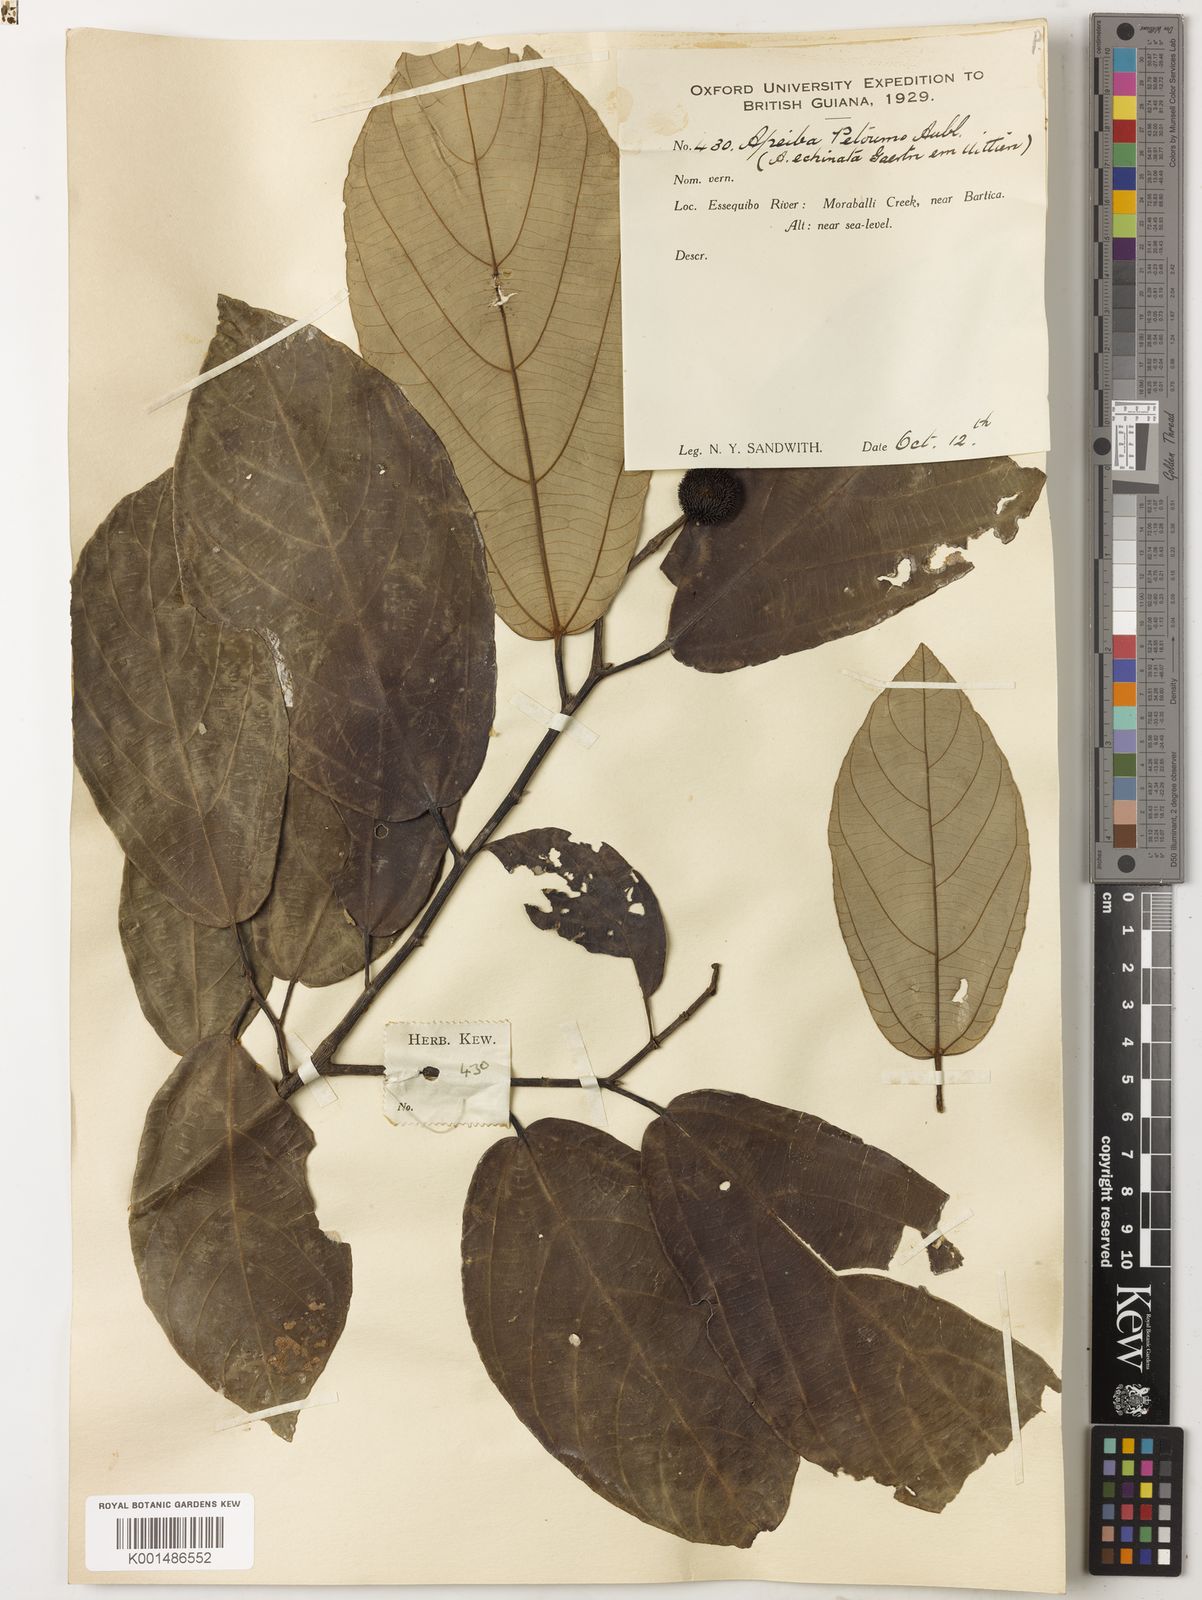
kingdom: Plantae
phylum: Tracheophyta
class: Magnoliopsida
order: Malvales
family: Malvaceae
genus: Apeiba
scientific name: Apeiba petoumo
